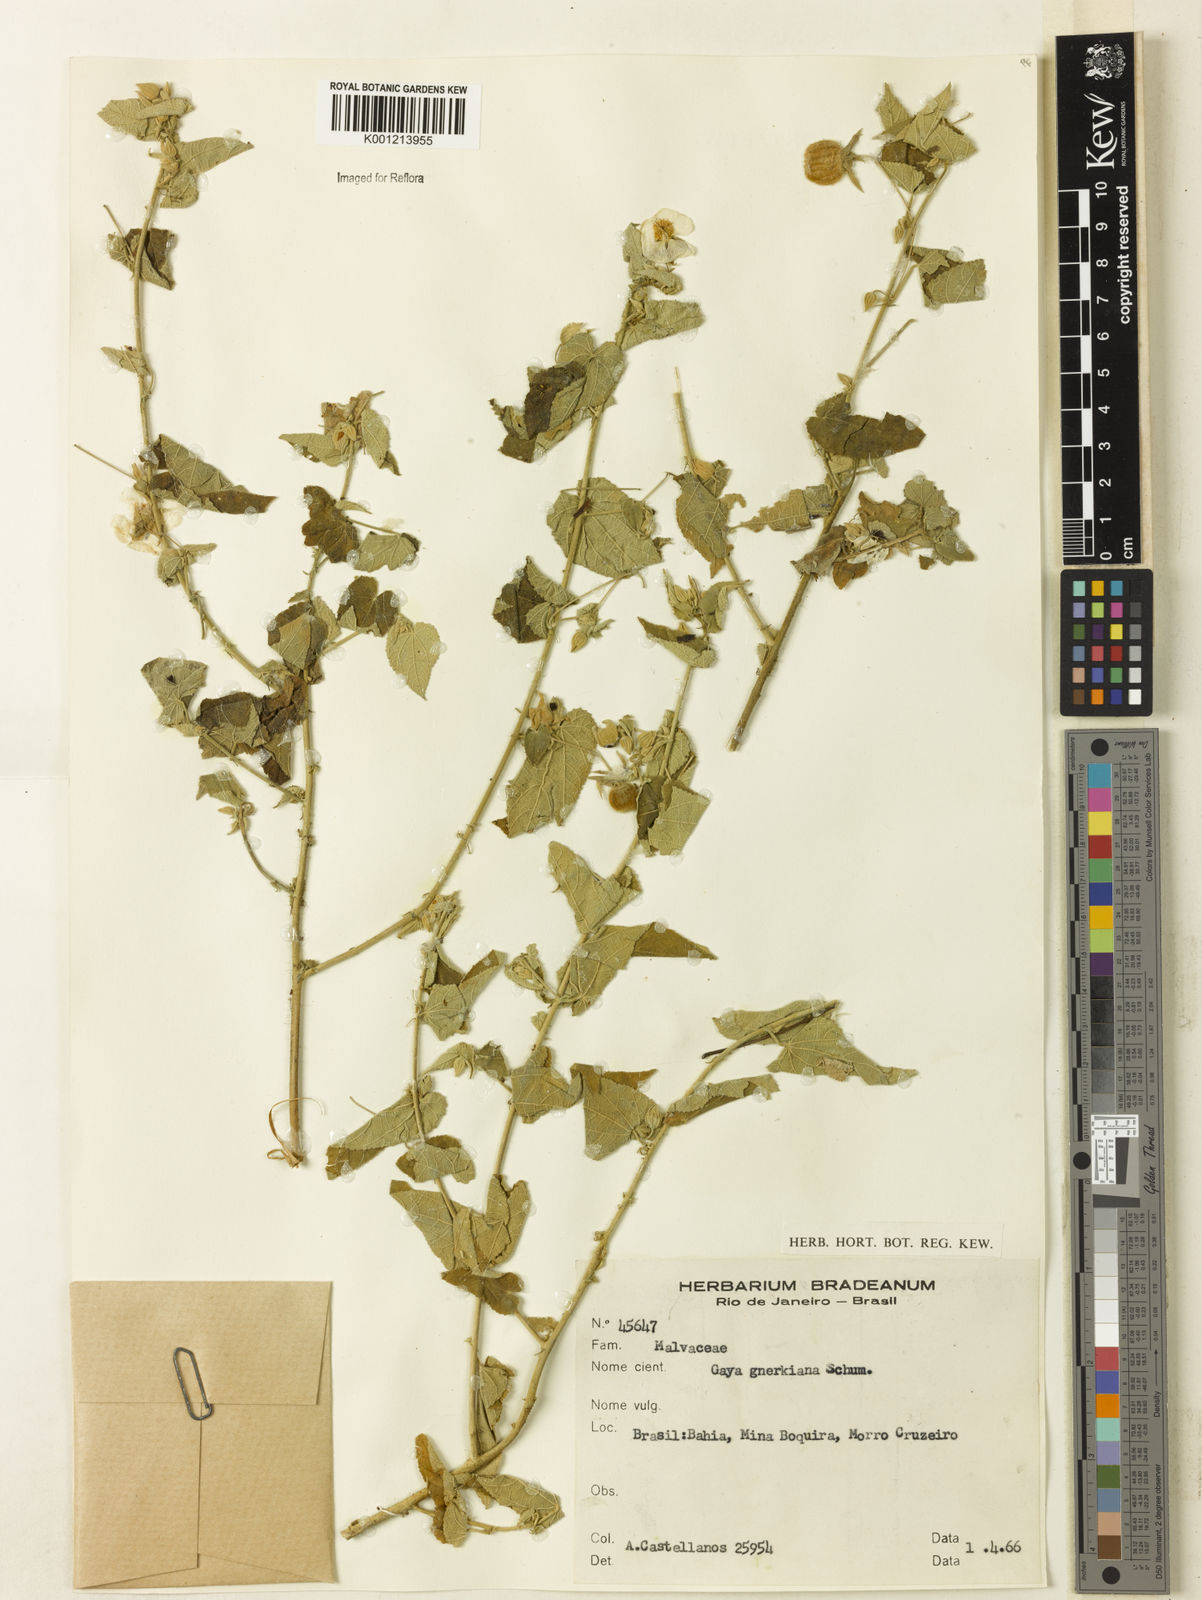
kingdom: Plantae
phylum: Tracheophyta
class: Magnoliopsida
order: Malvales
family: Malvaceae
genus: Gaya
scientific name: Gaya guerkeana
